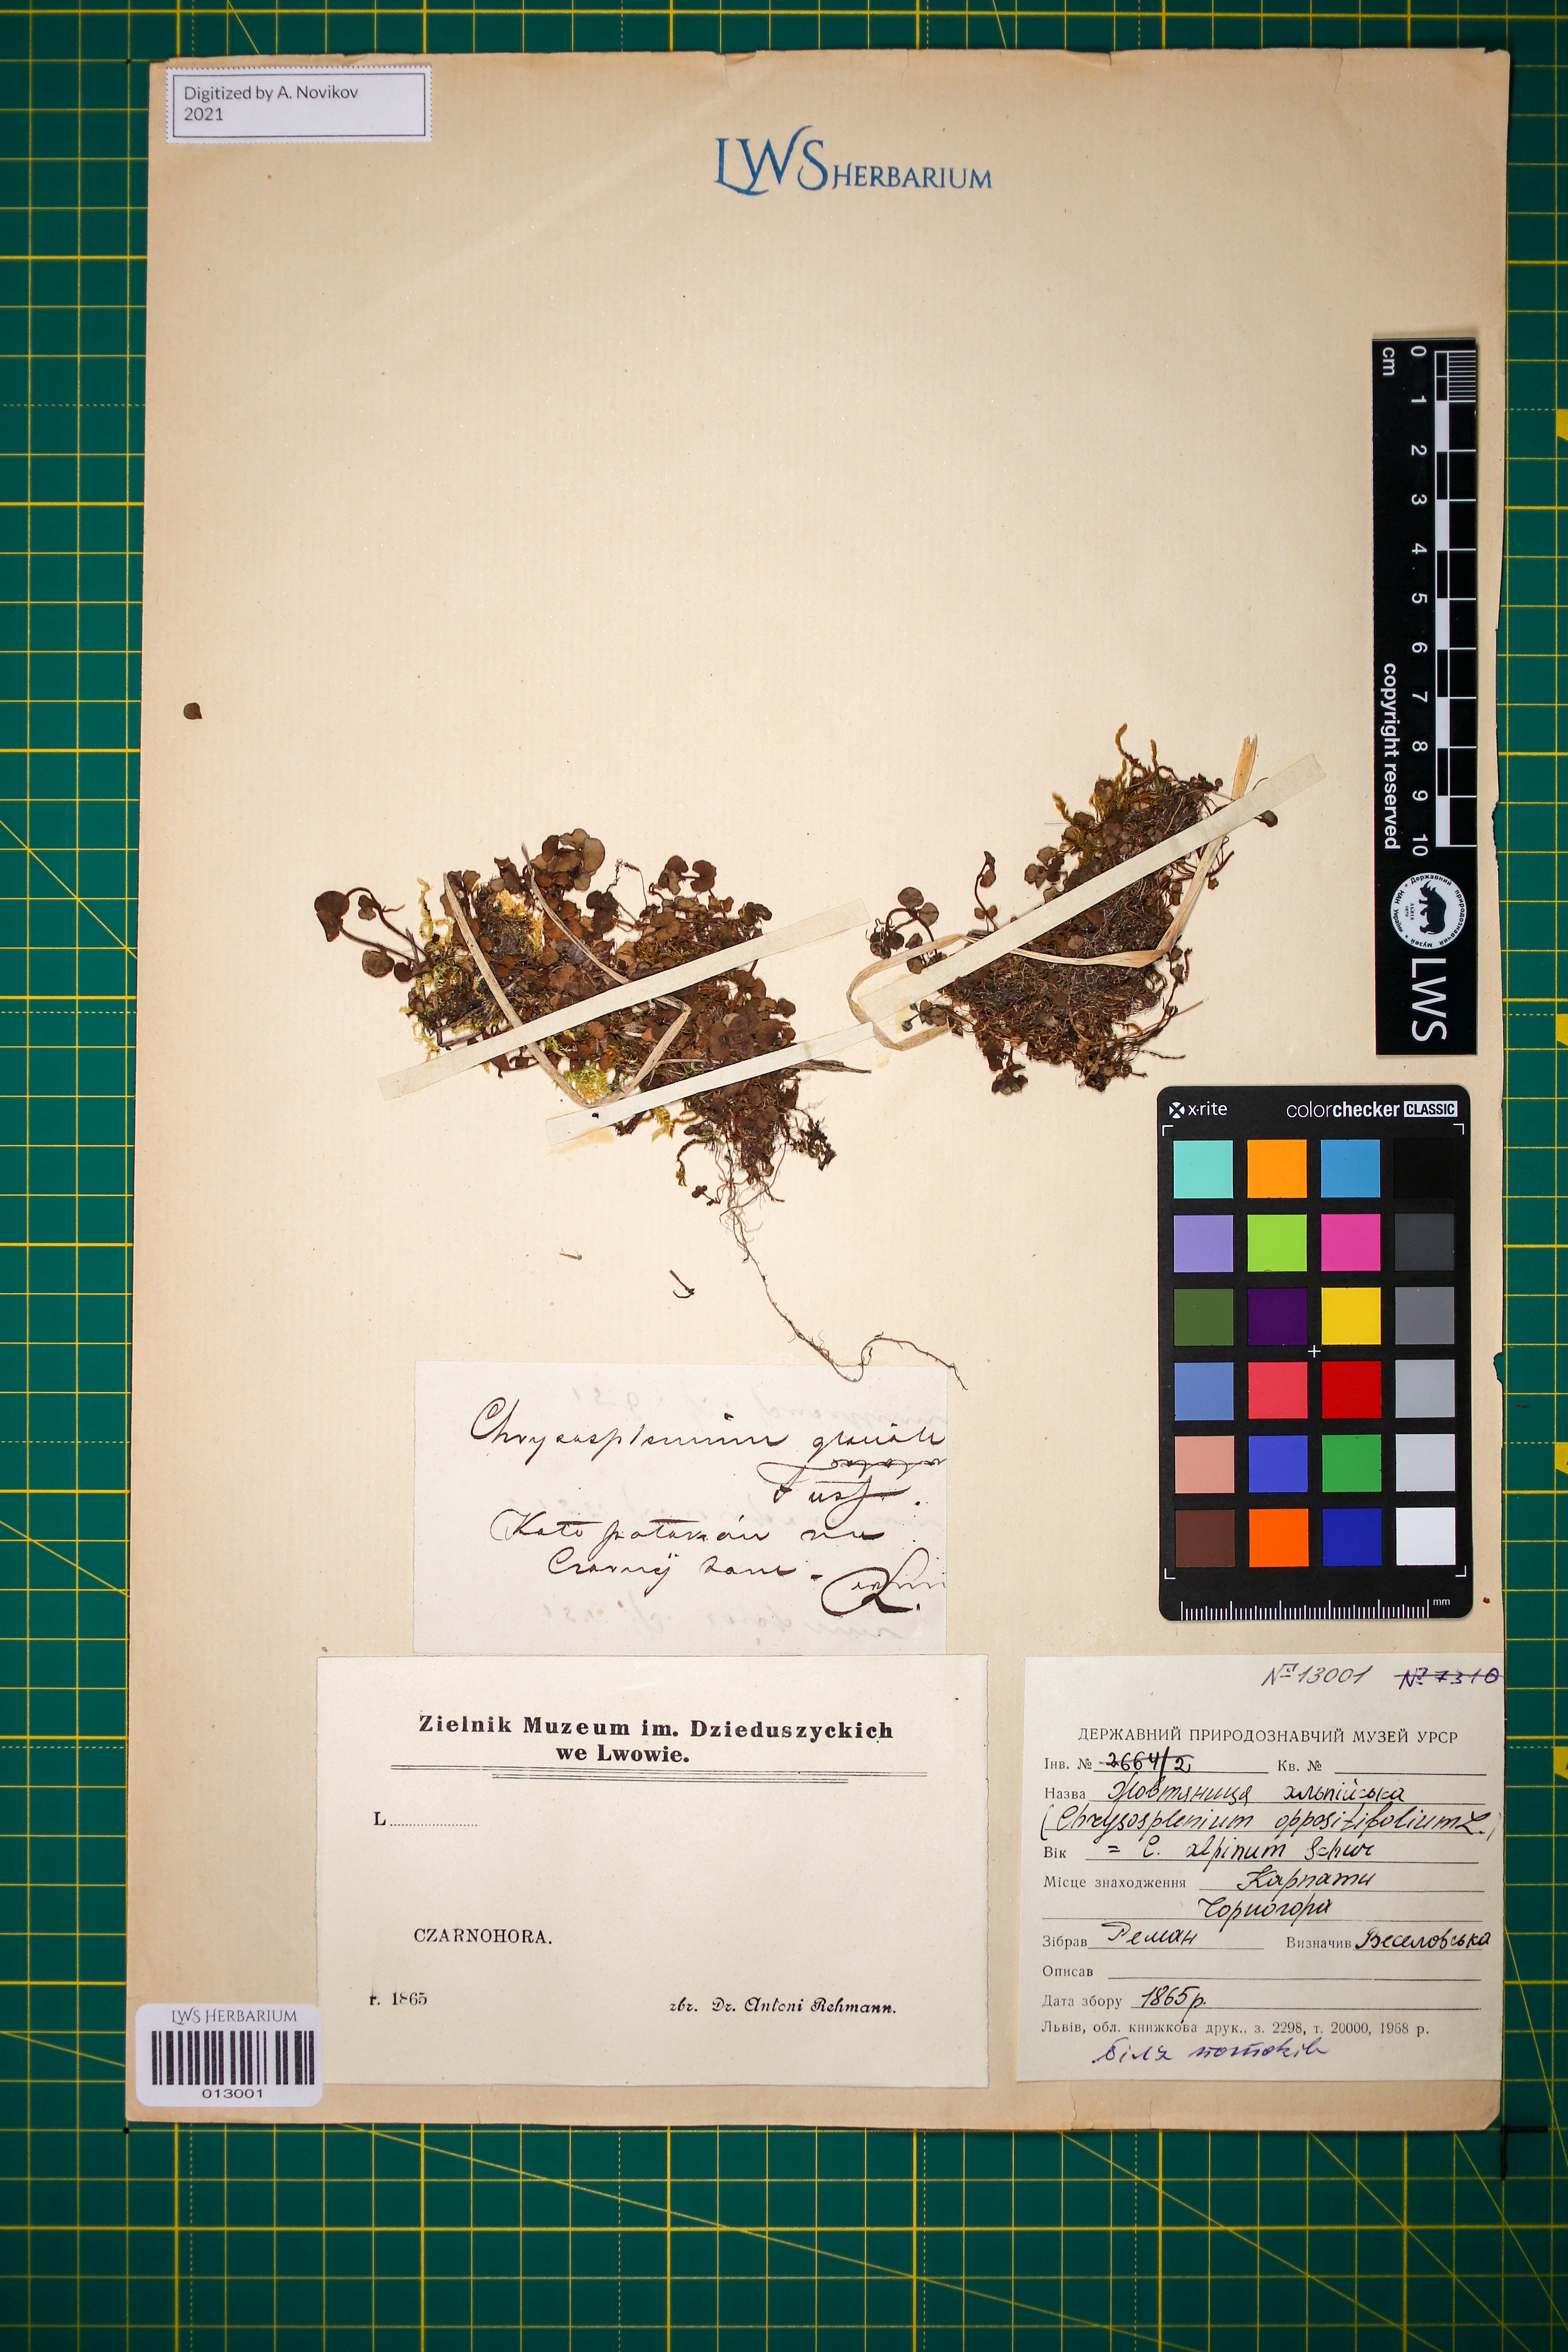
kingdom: Plantae
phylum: Tracheophyta
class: Magnoliopsida
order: Saxifragales
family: Saxifragaceae
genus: Chrysosplenium
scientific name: Chrysosplenium alpinum
